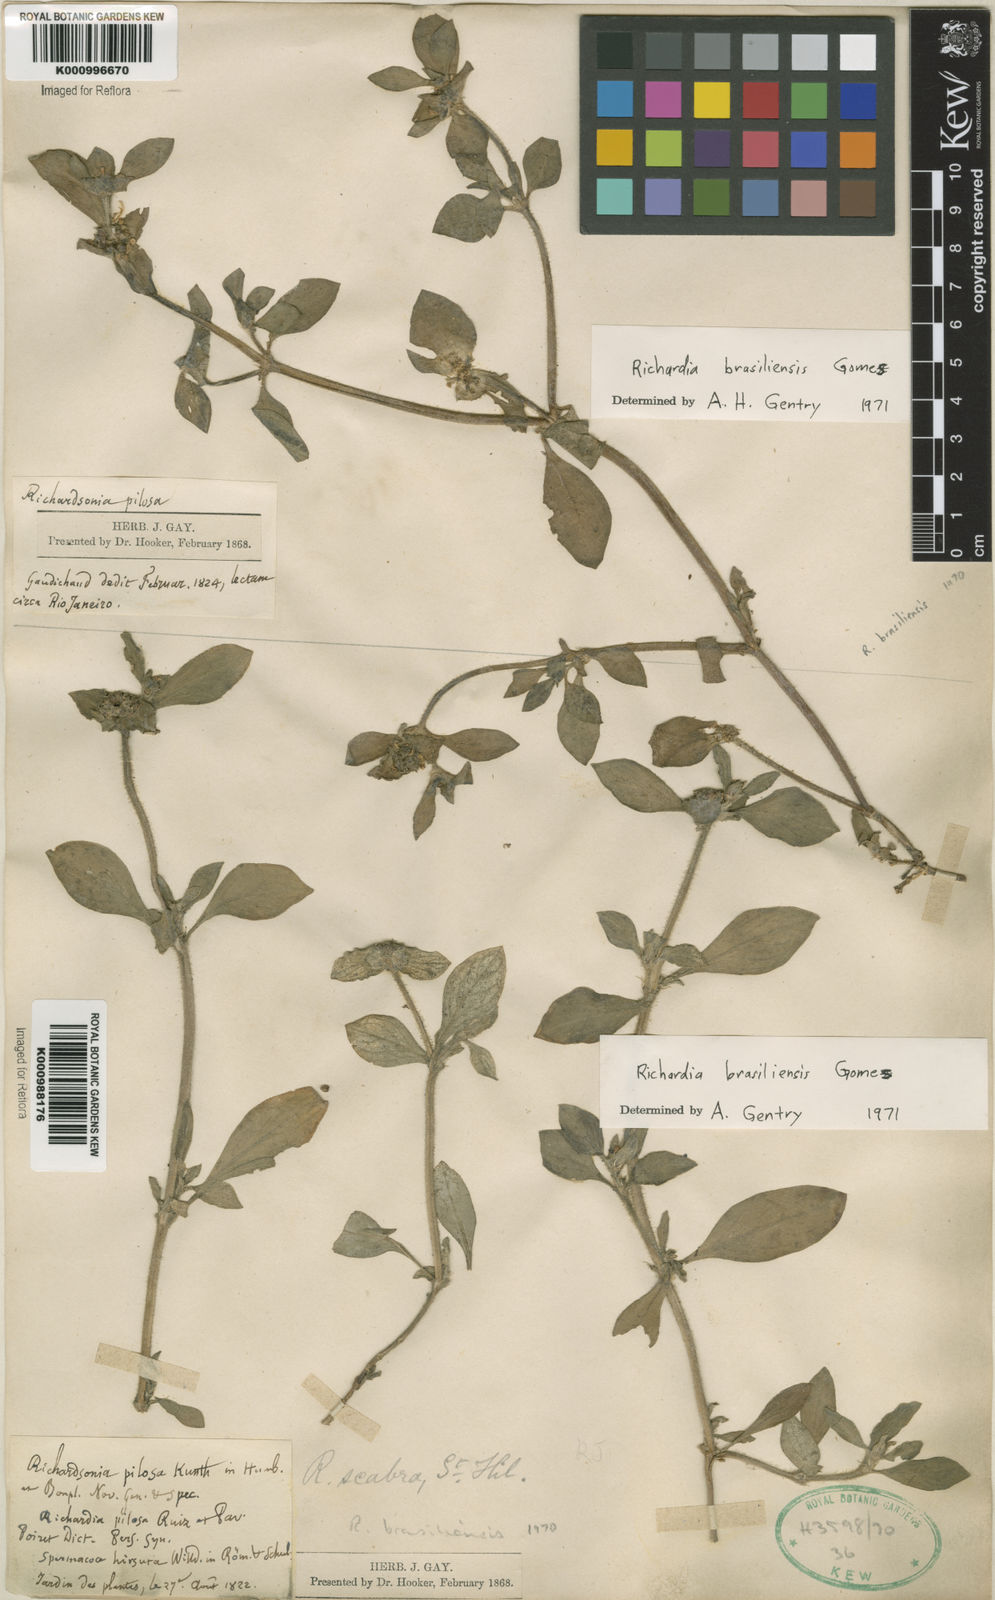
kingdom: Plantae
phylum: Tracheophyta
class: Magnoliopsida
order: Gentianales
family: Rubiaceae
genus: Richardia
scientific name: Richardia brasiliensis
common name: Tropical mexican clover
